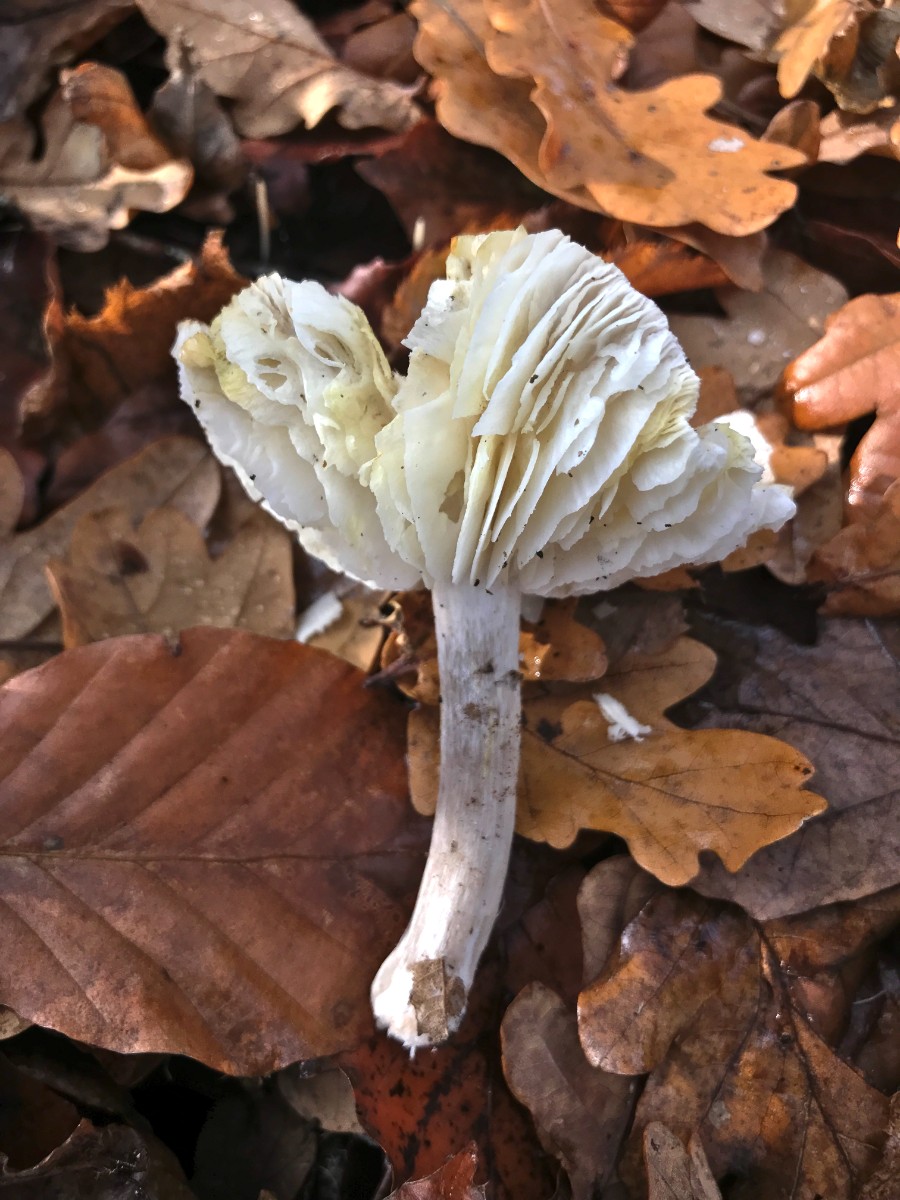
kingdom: Fungi
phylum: Basidiomycota
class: Agaricomycetes
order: Agaricales
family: Tricholomataceae
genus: Tricholoma
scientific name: Tricholoma scalpturatum
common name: gulplettet ridderhat
